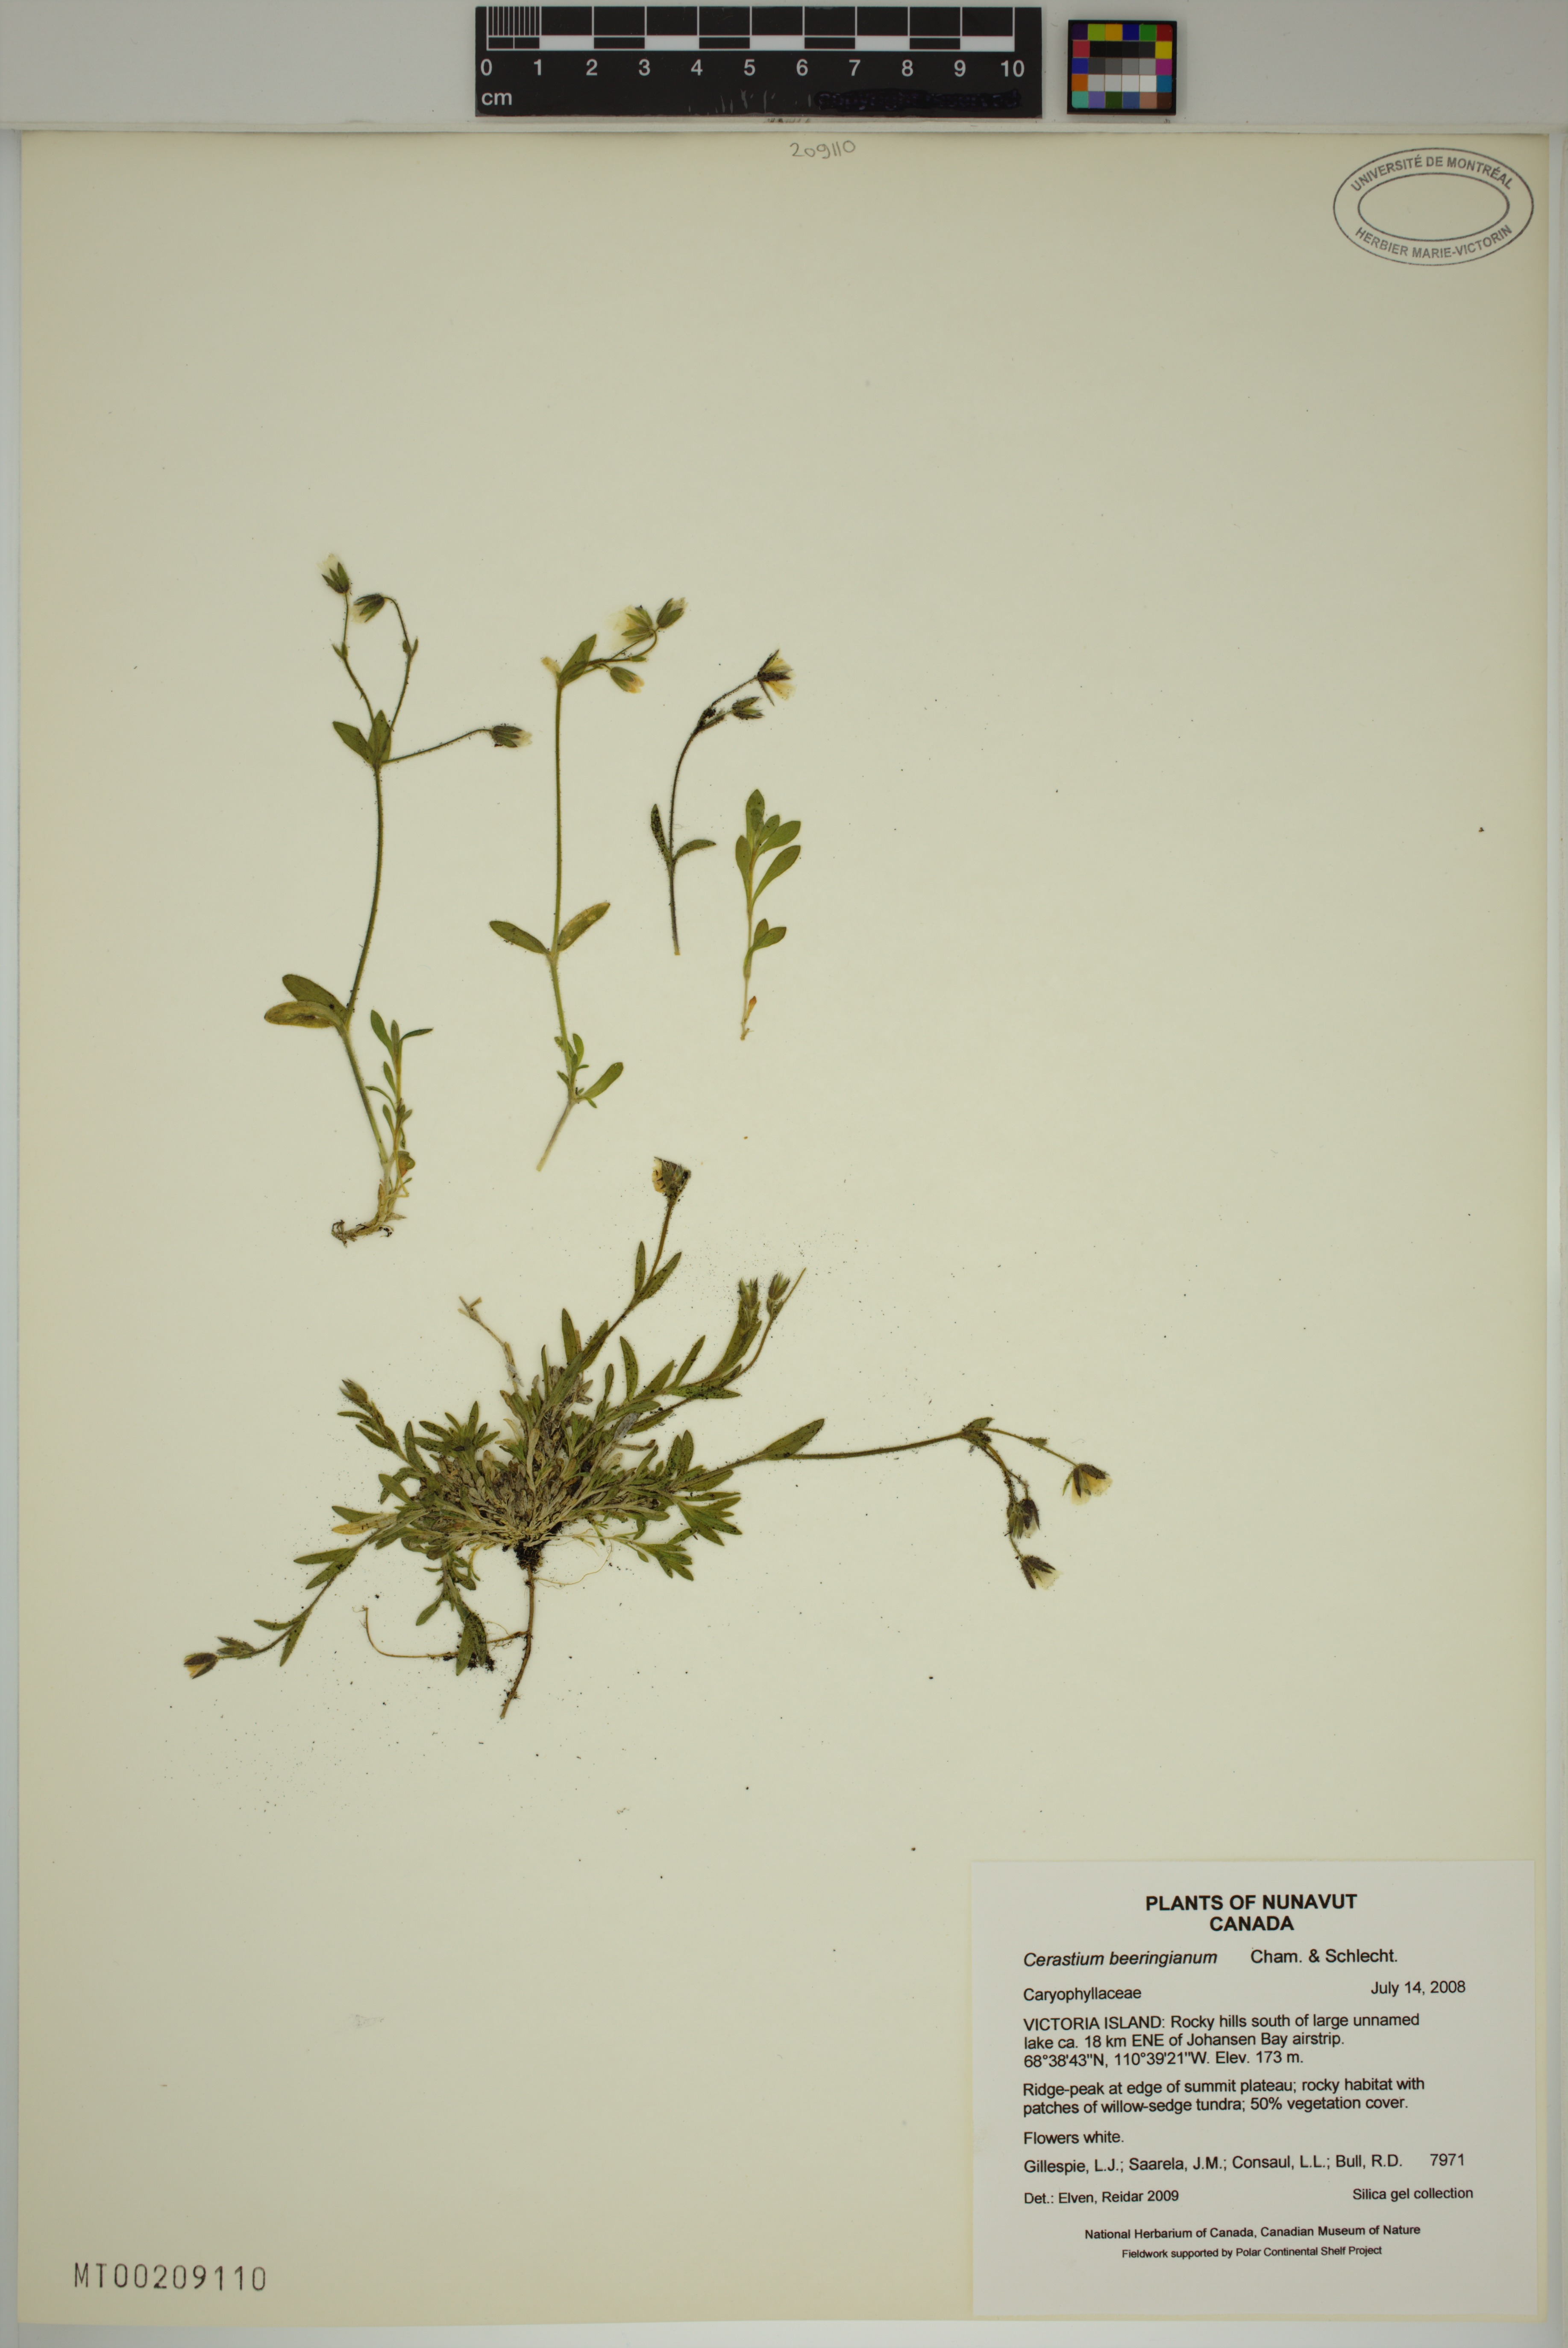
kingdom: Plantae
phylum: Tracheophyta
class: Magnoliopsida
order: Caryophyllales
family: Caryophyllaceae
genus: Cerastium
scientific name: Cerastium beeringianum
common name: Bering mouse-ear chickweed
